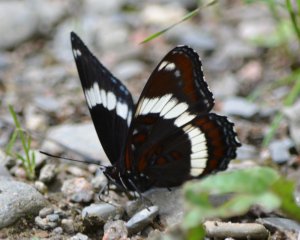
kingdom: Animalia
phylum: Arthropoda
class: Insecta
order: Lepidoptera
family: Nymphalidae
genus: Limenitis
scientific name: Limenitis arthemis
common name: Red-spotted Admiral
